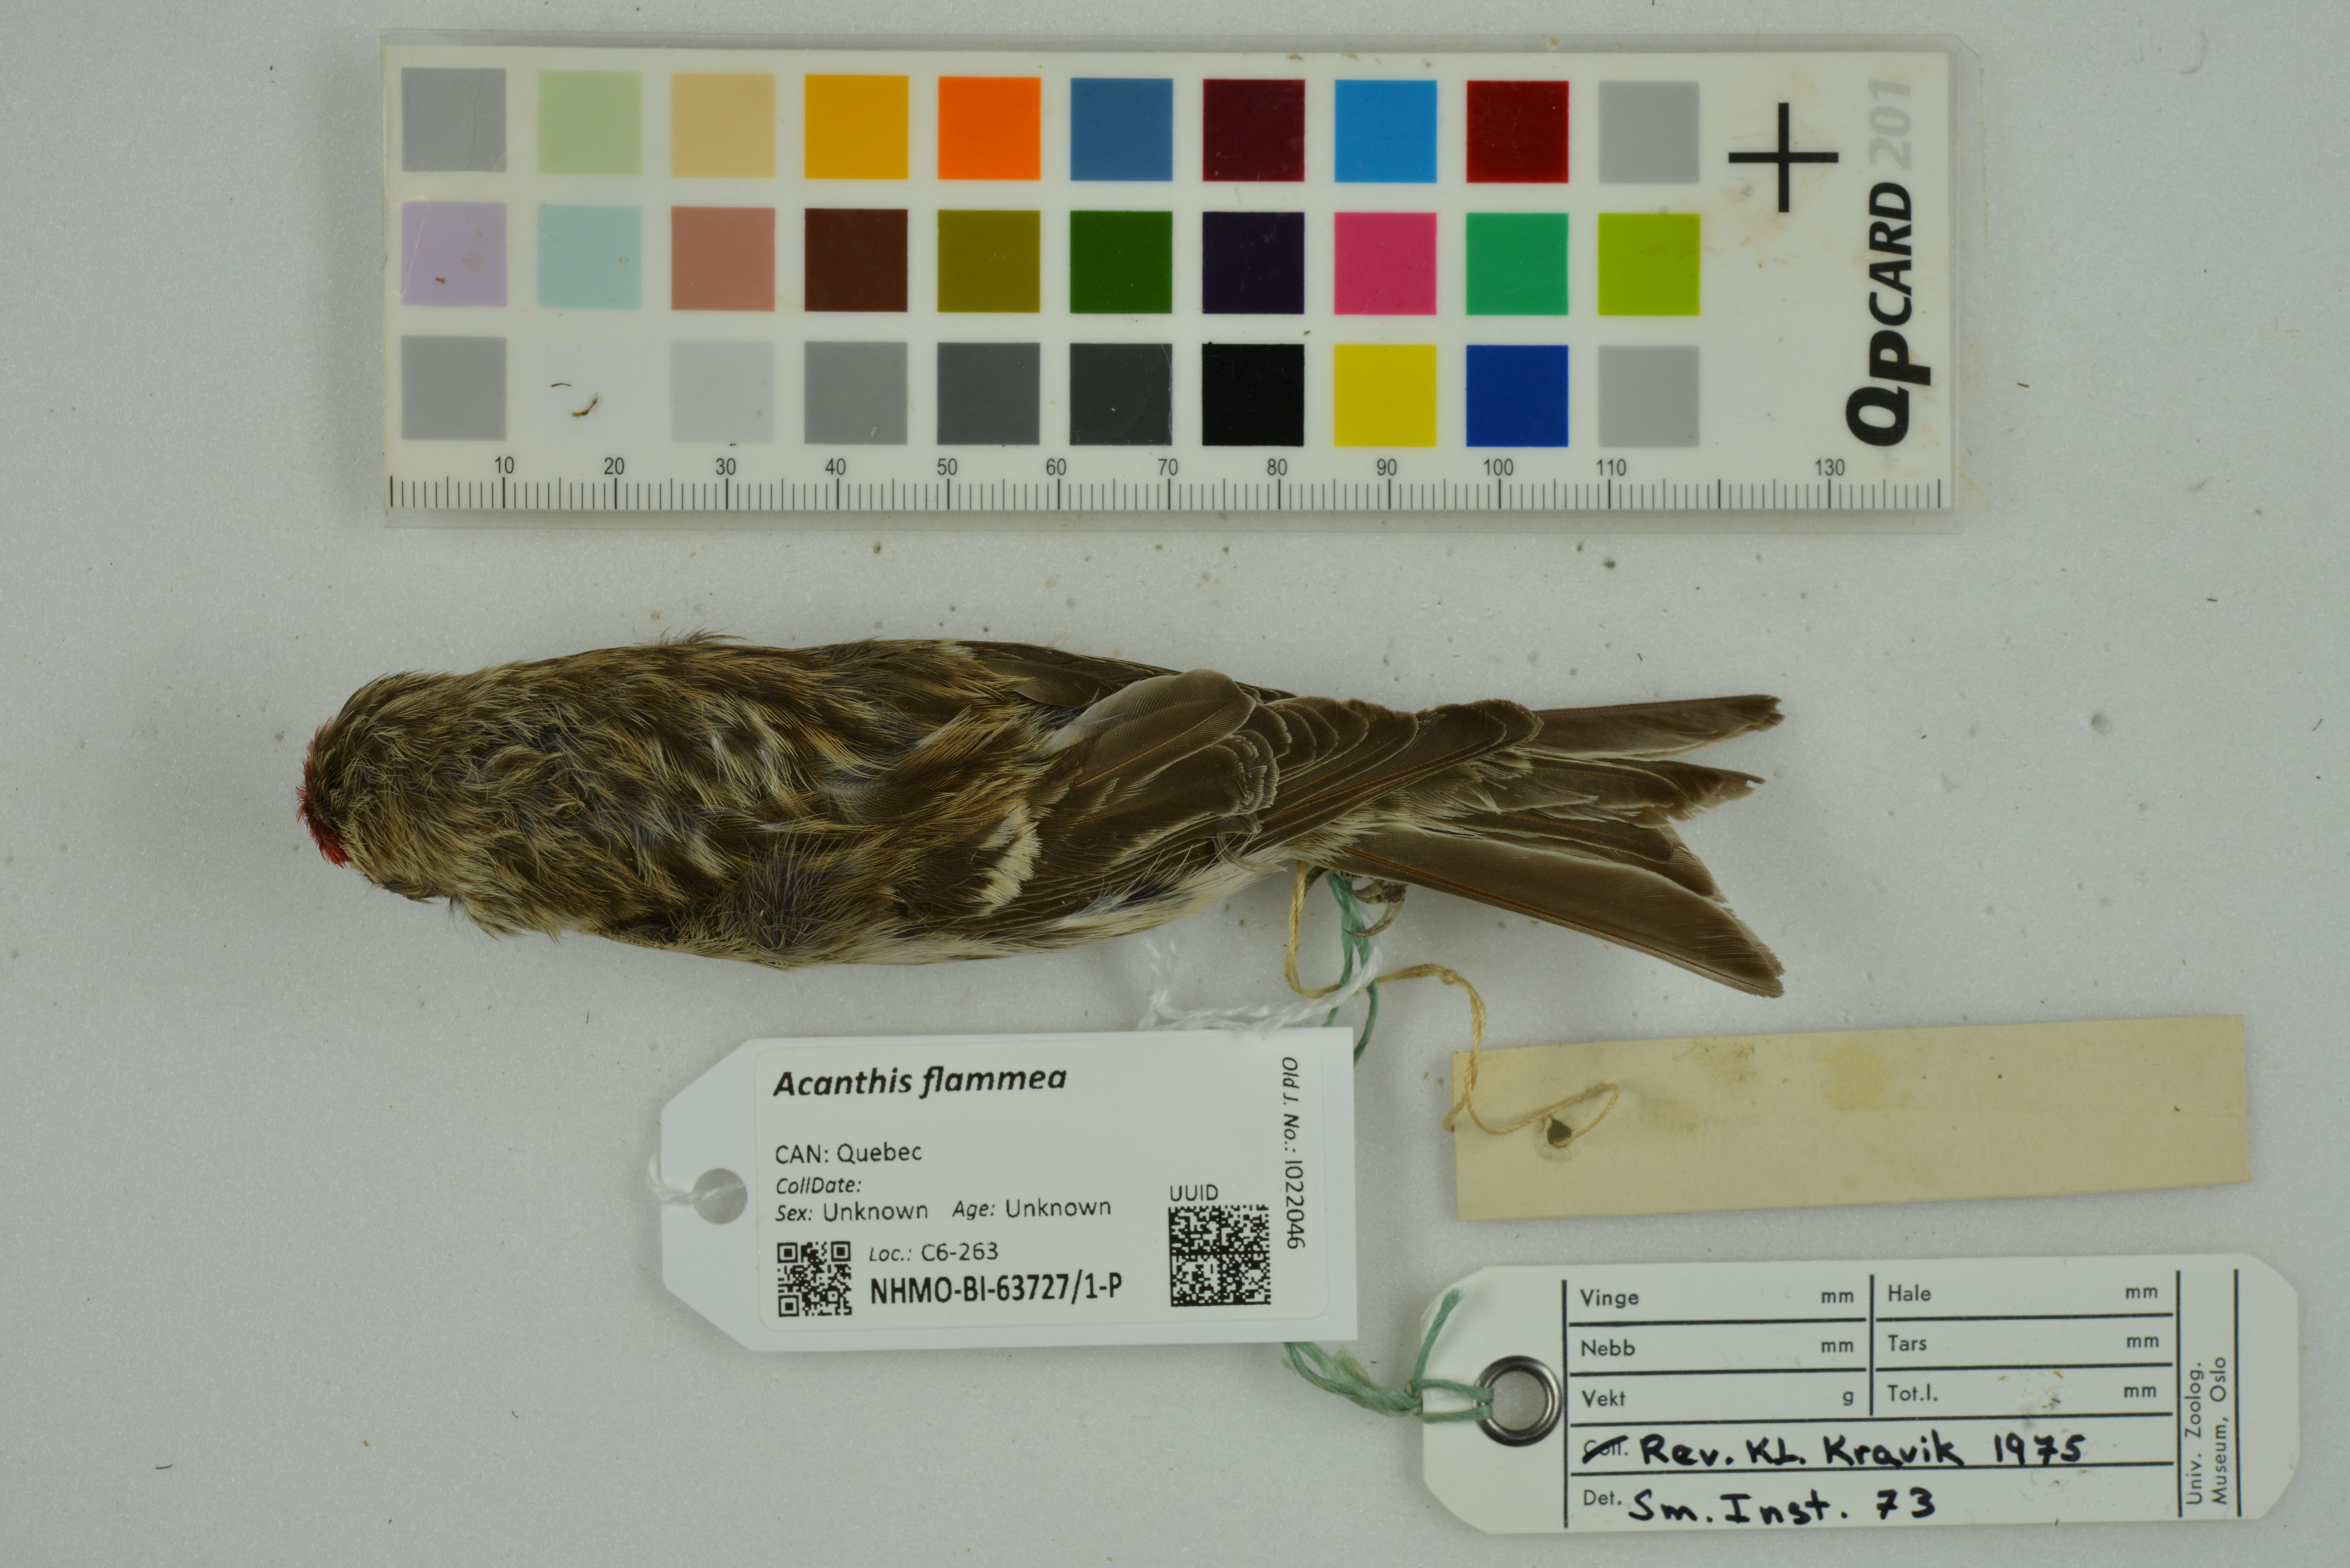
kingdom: Animalia
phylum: Chordata
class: Aves
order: Passeriformes
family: Fringillidae
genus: Acanthis
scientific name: Acanthis flammea
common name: Common redpoll
